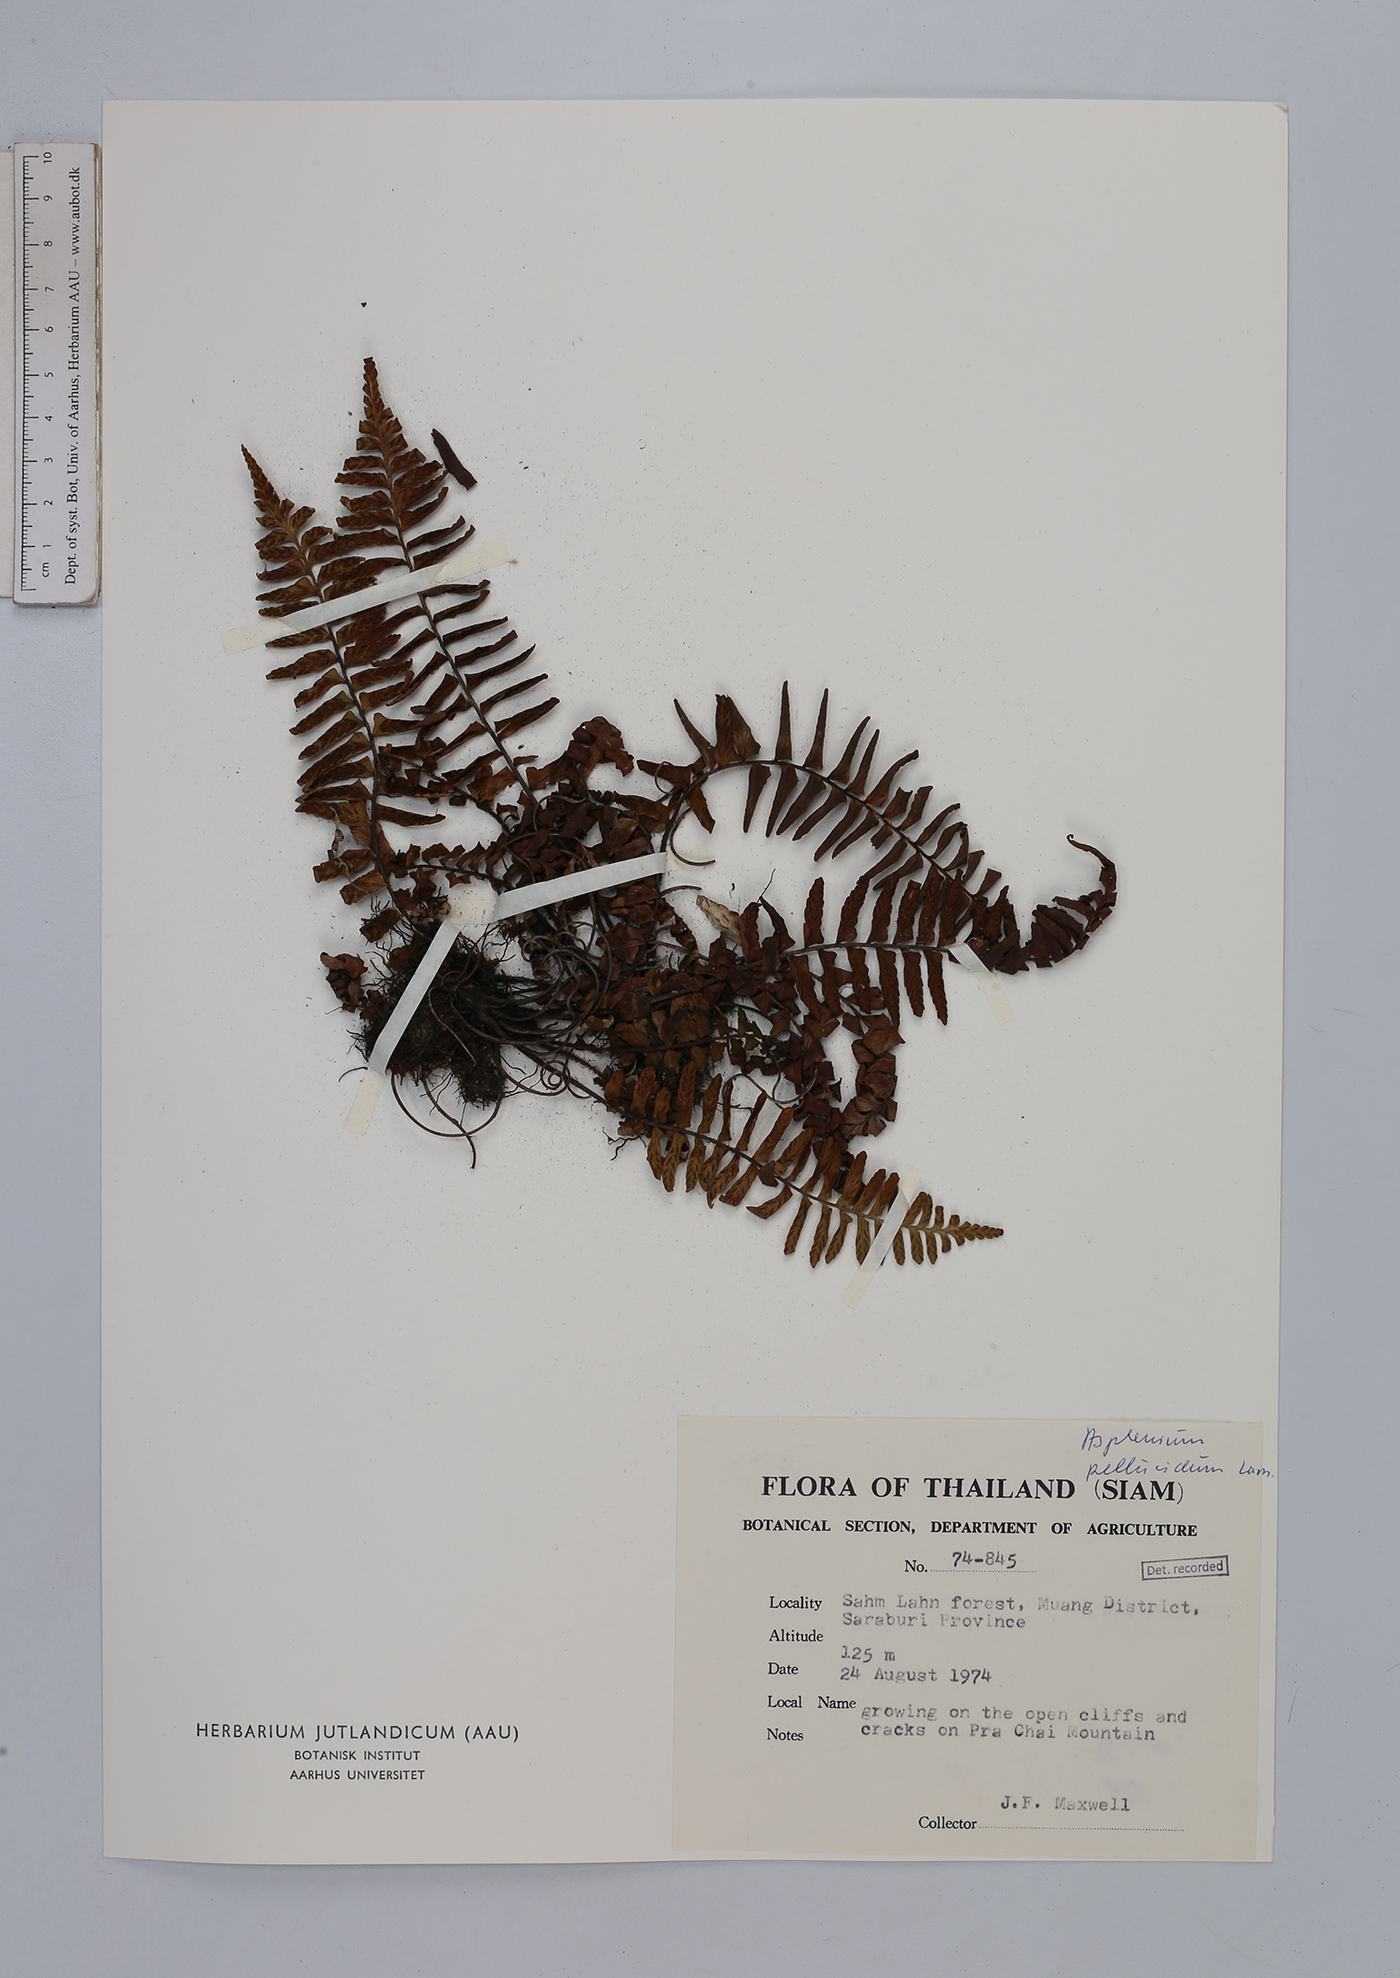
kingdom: Plantae
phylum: Tracheophyta
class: Polypodiopsida
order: Polypodiales
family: Aspleniaceae
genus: Asplenium
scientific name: Asplenium pellucidum
